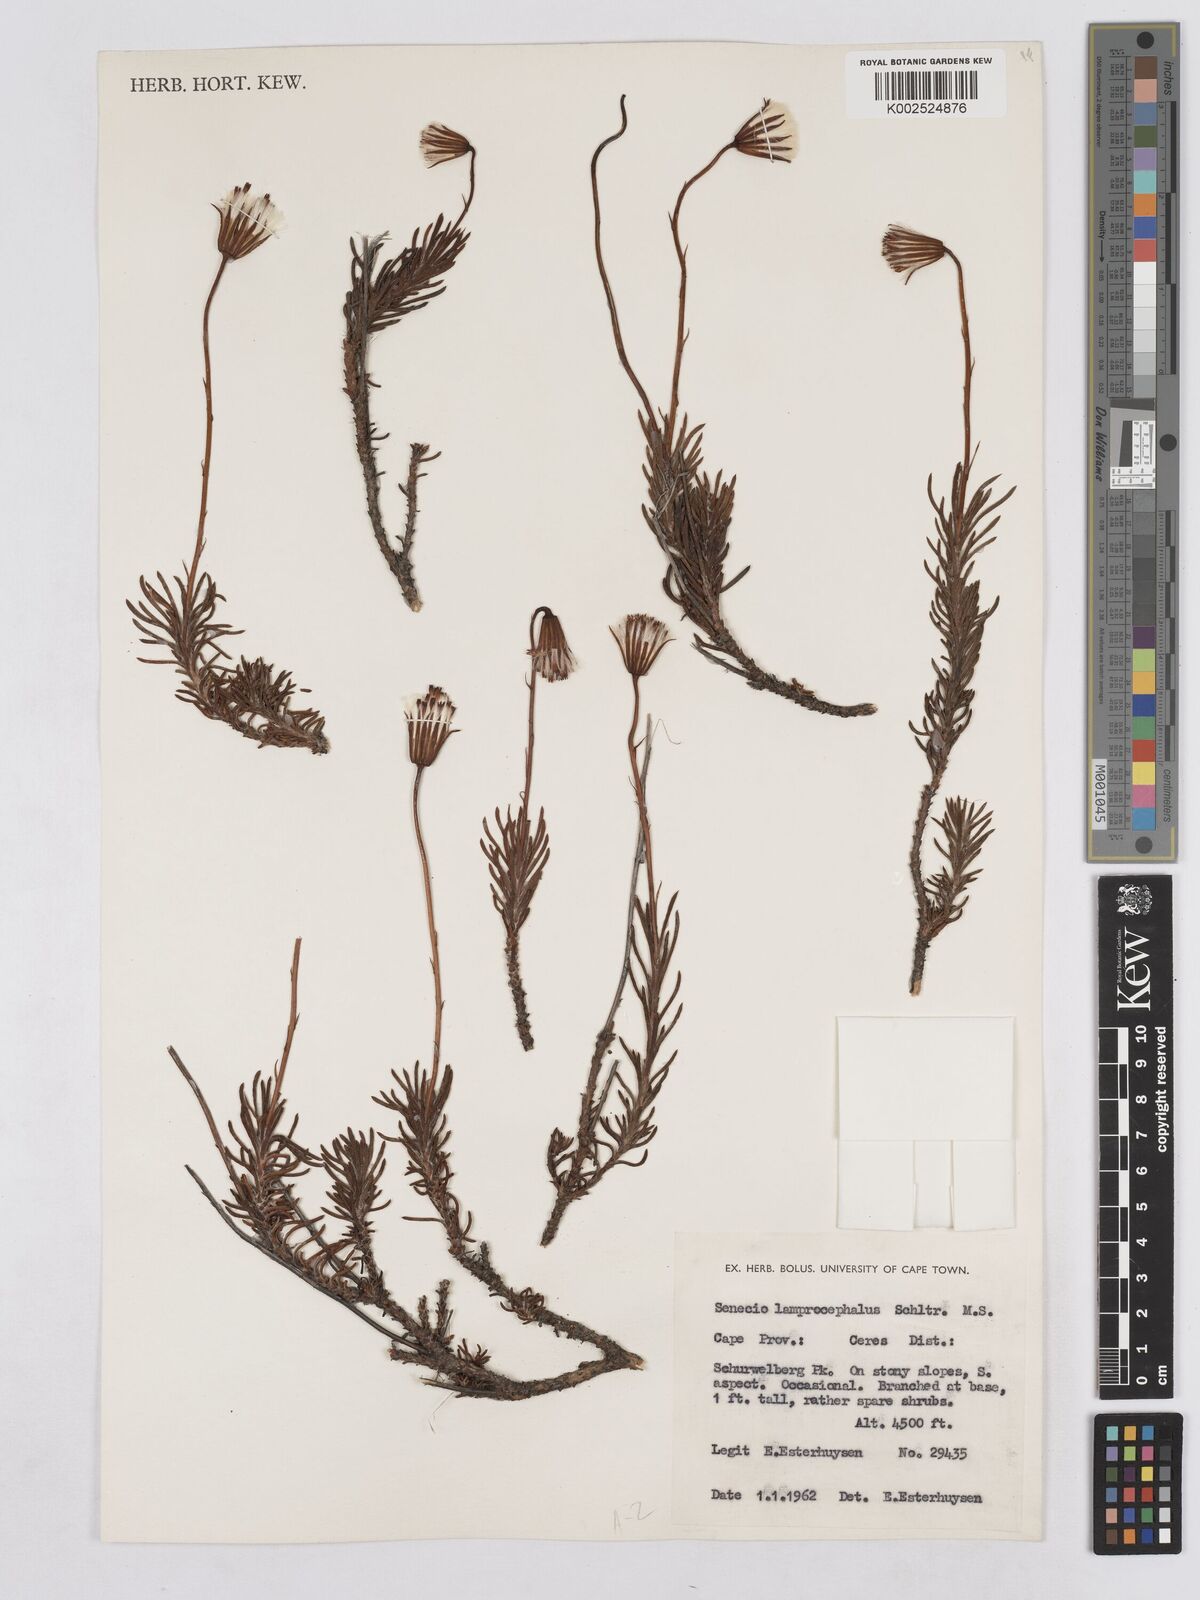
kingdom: Plantae
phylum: Tracheophyta
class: Magnoliopsida
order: Asterales
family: Asteraceae
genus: Lamprocephalus
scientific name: Lamprocephalus montanus
